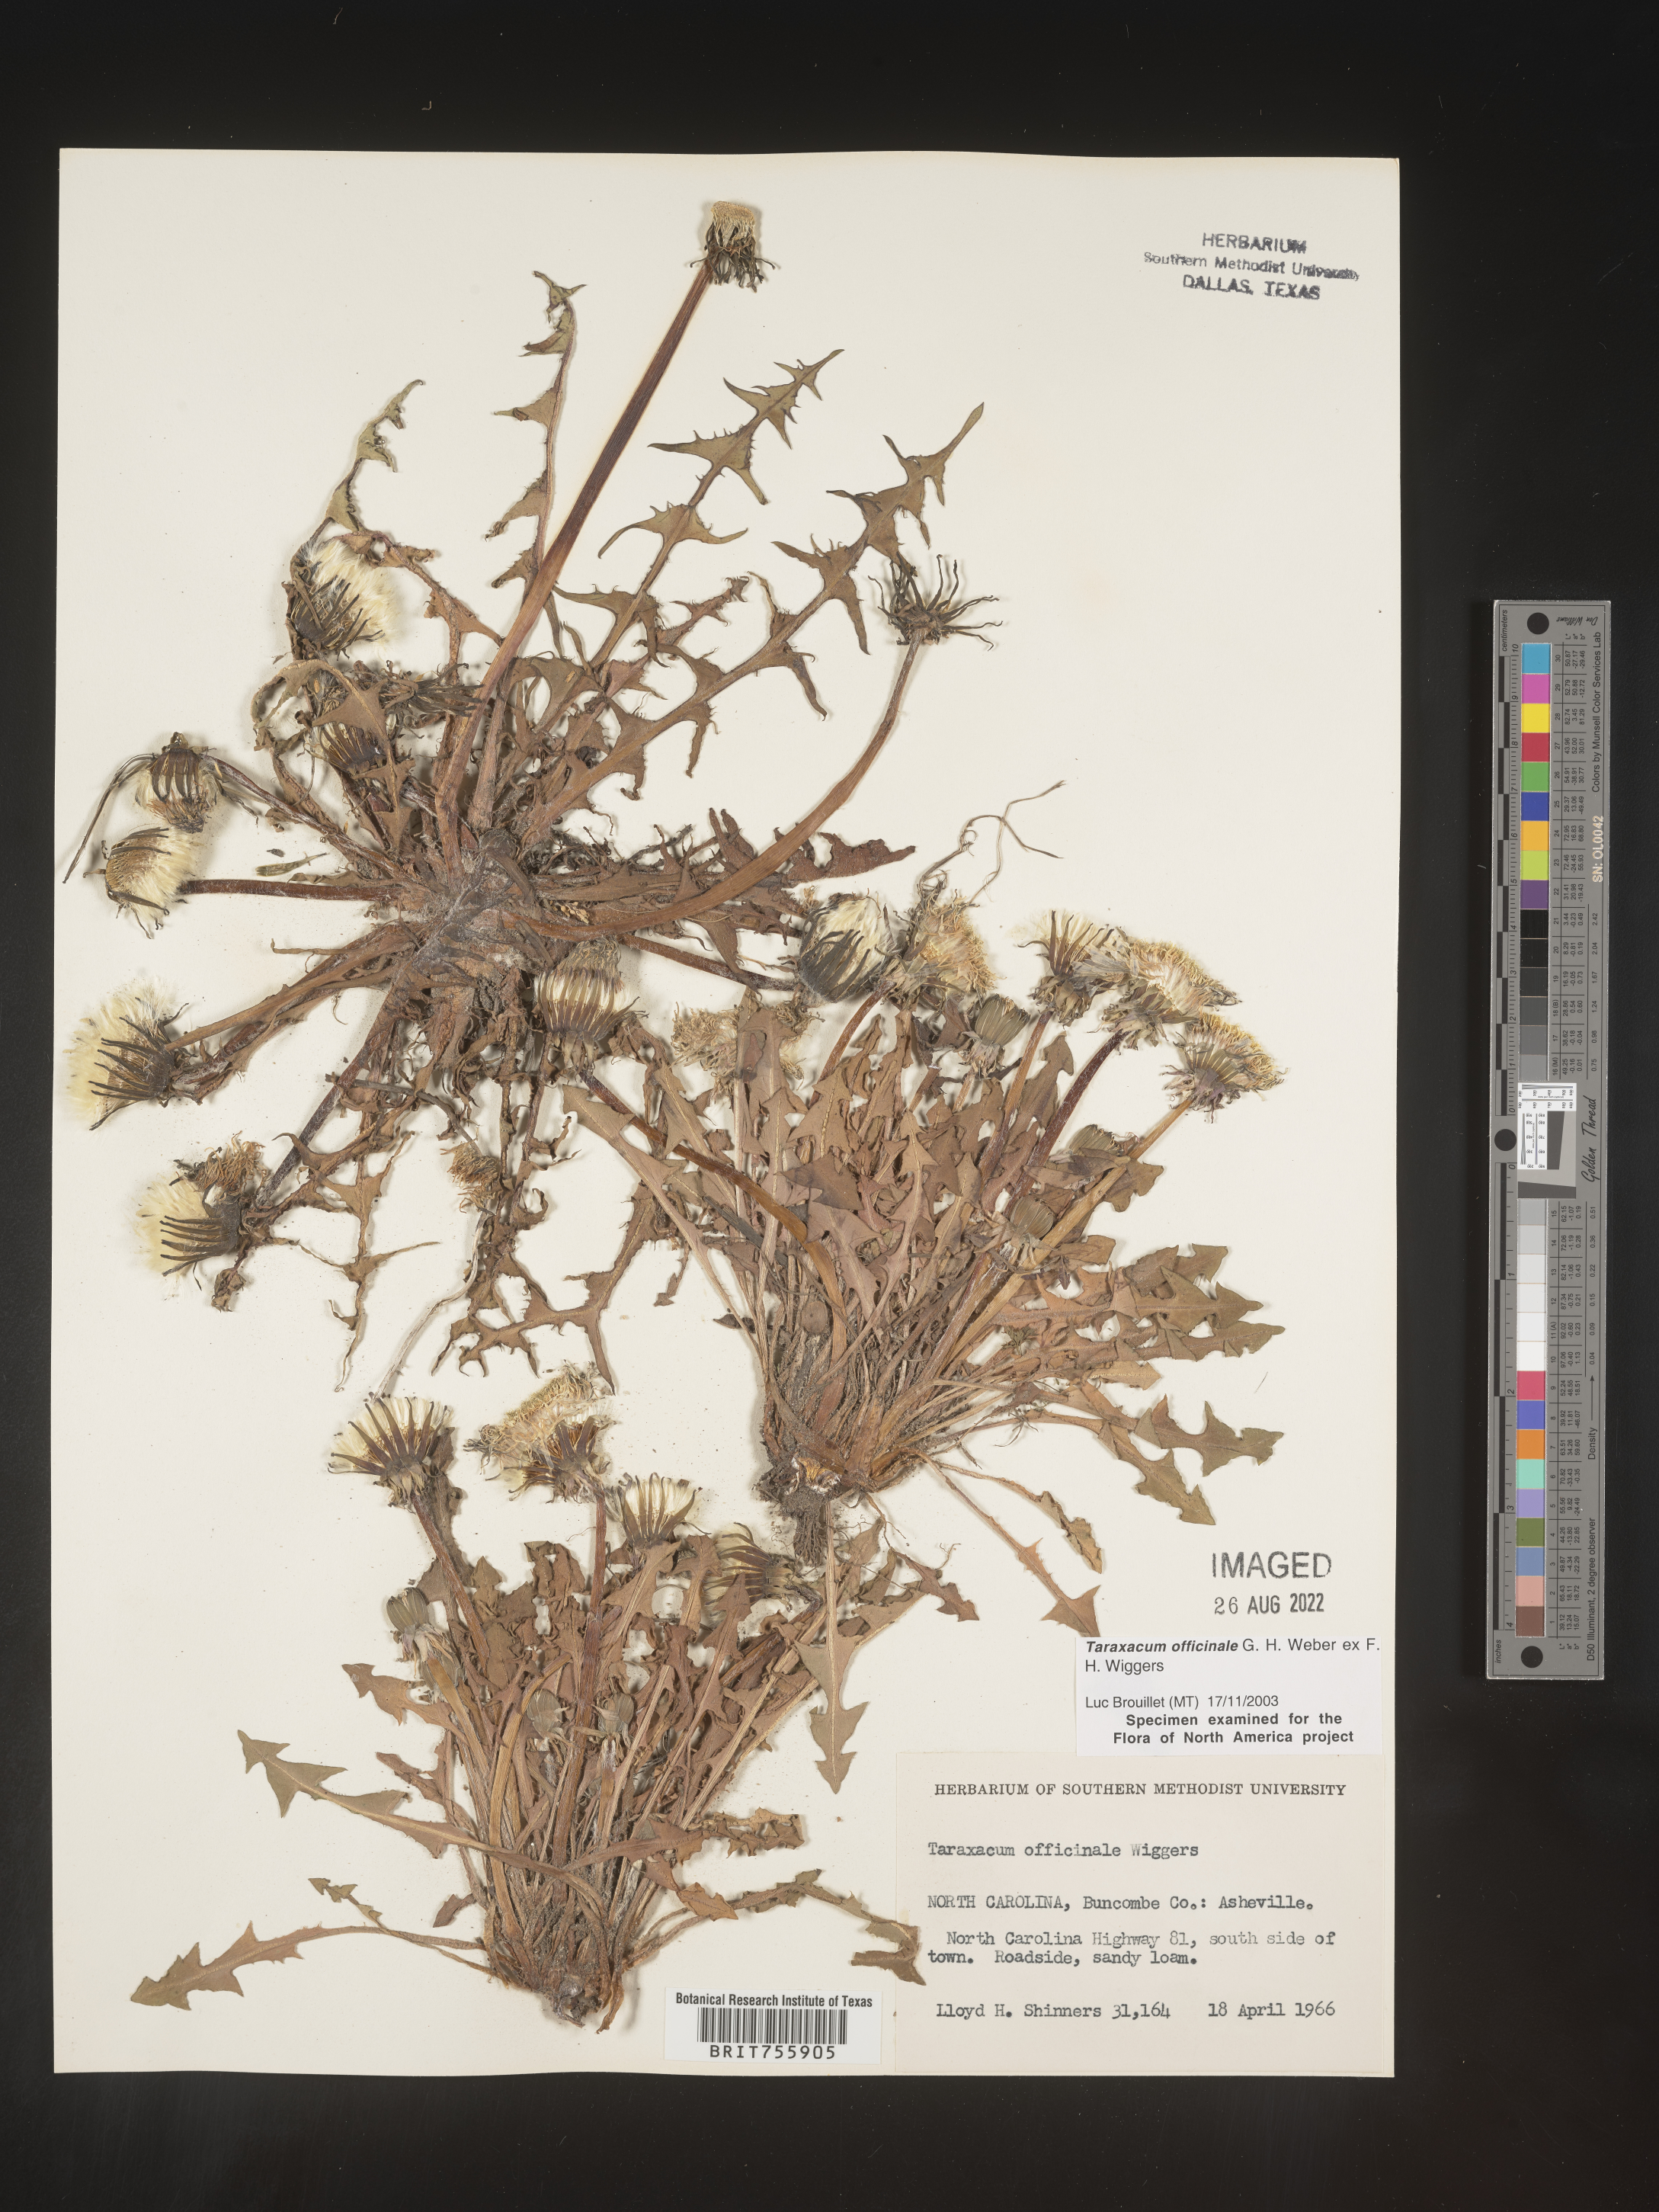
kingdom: Plantae
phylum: Tracheophyta
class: Magnoliopsida
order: Asterales
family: Asteraceae
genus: Taraxacum
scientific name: Taraxacum officinale
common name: Common dandelion
